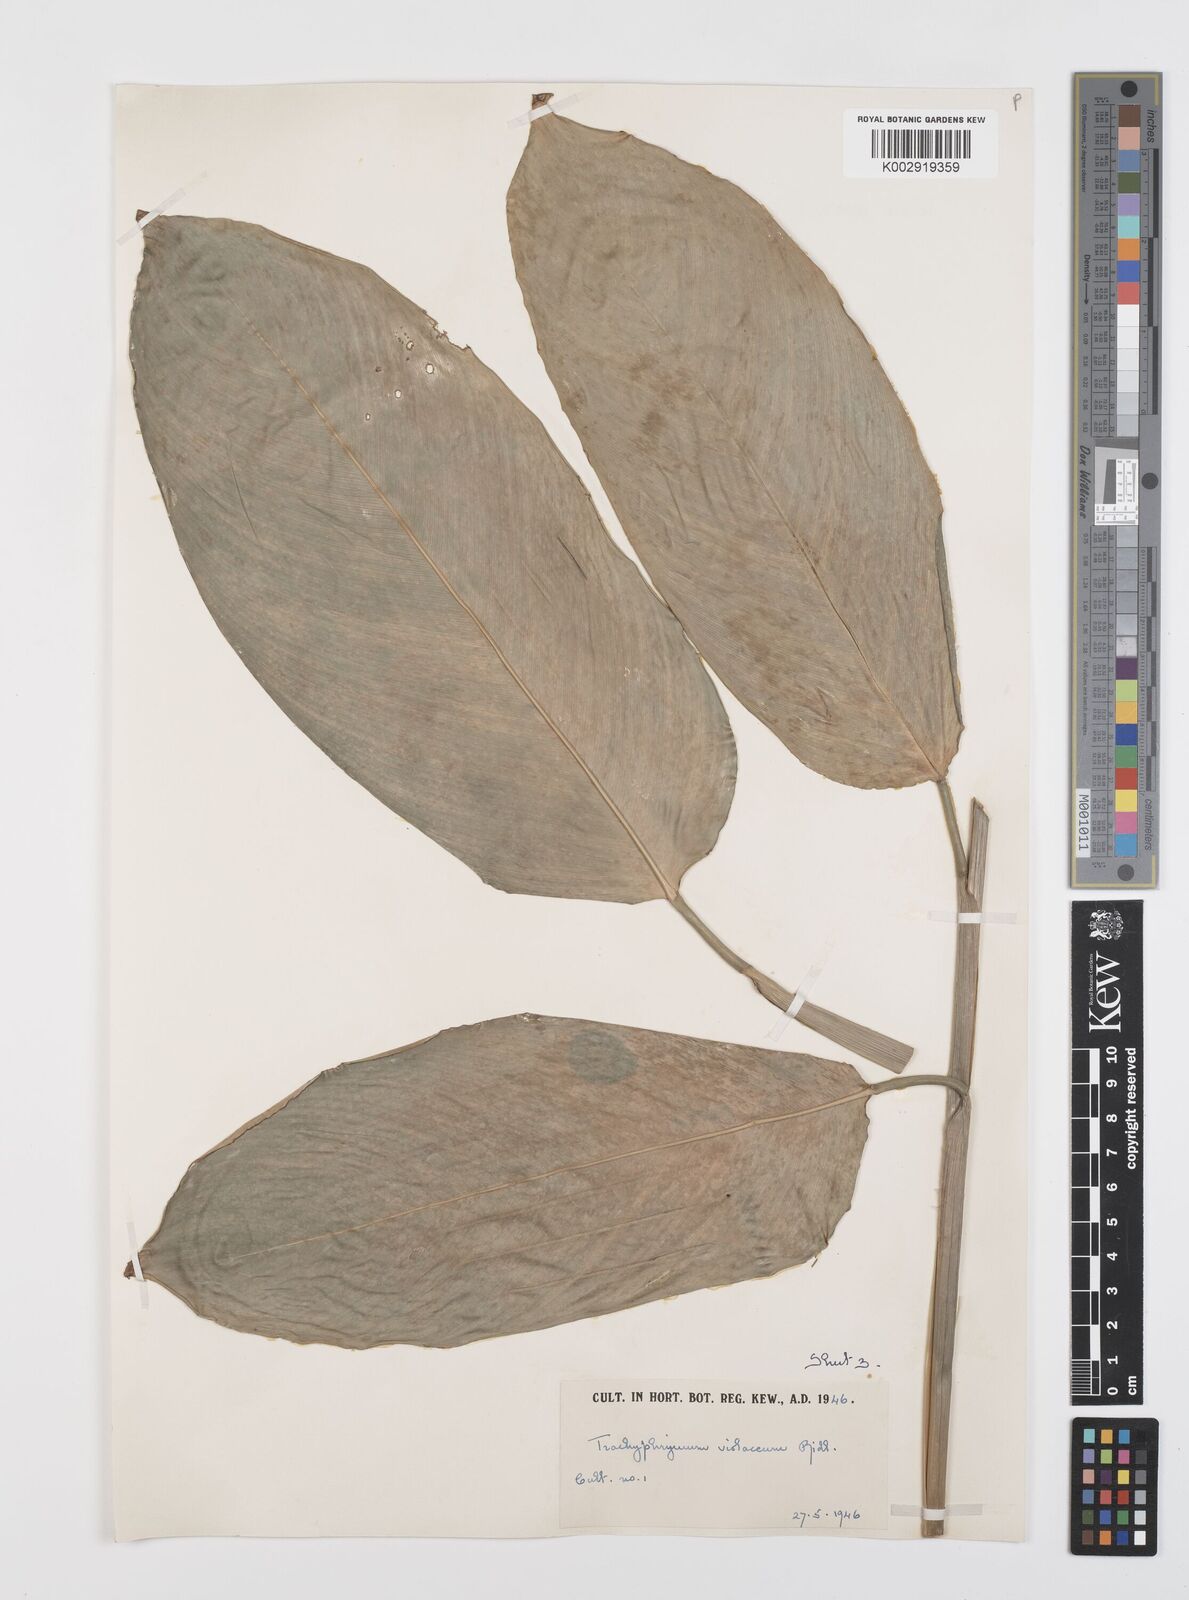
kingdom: Plantae
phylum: Tracheophyta
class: Liliopsida
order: Zingiberales
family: Marantaceae
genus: Hypselodelphys
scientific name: Hypselodelphys poggeana
